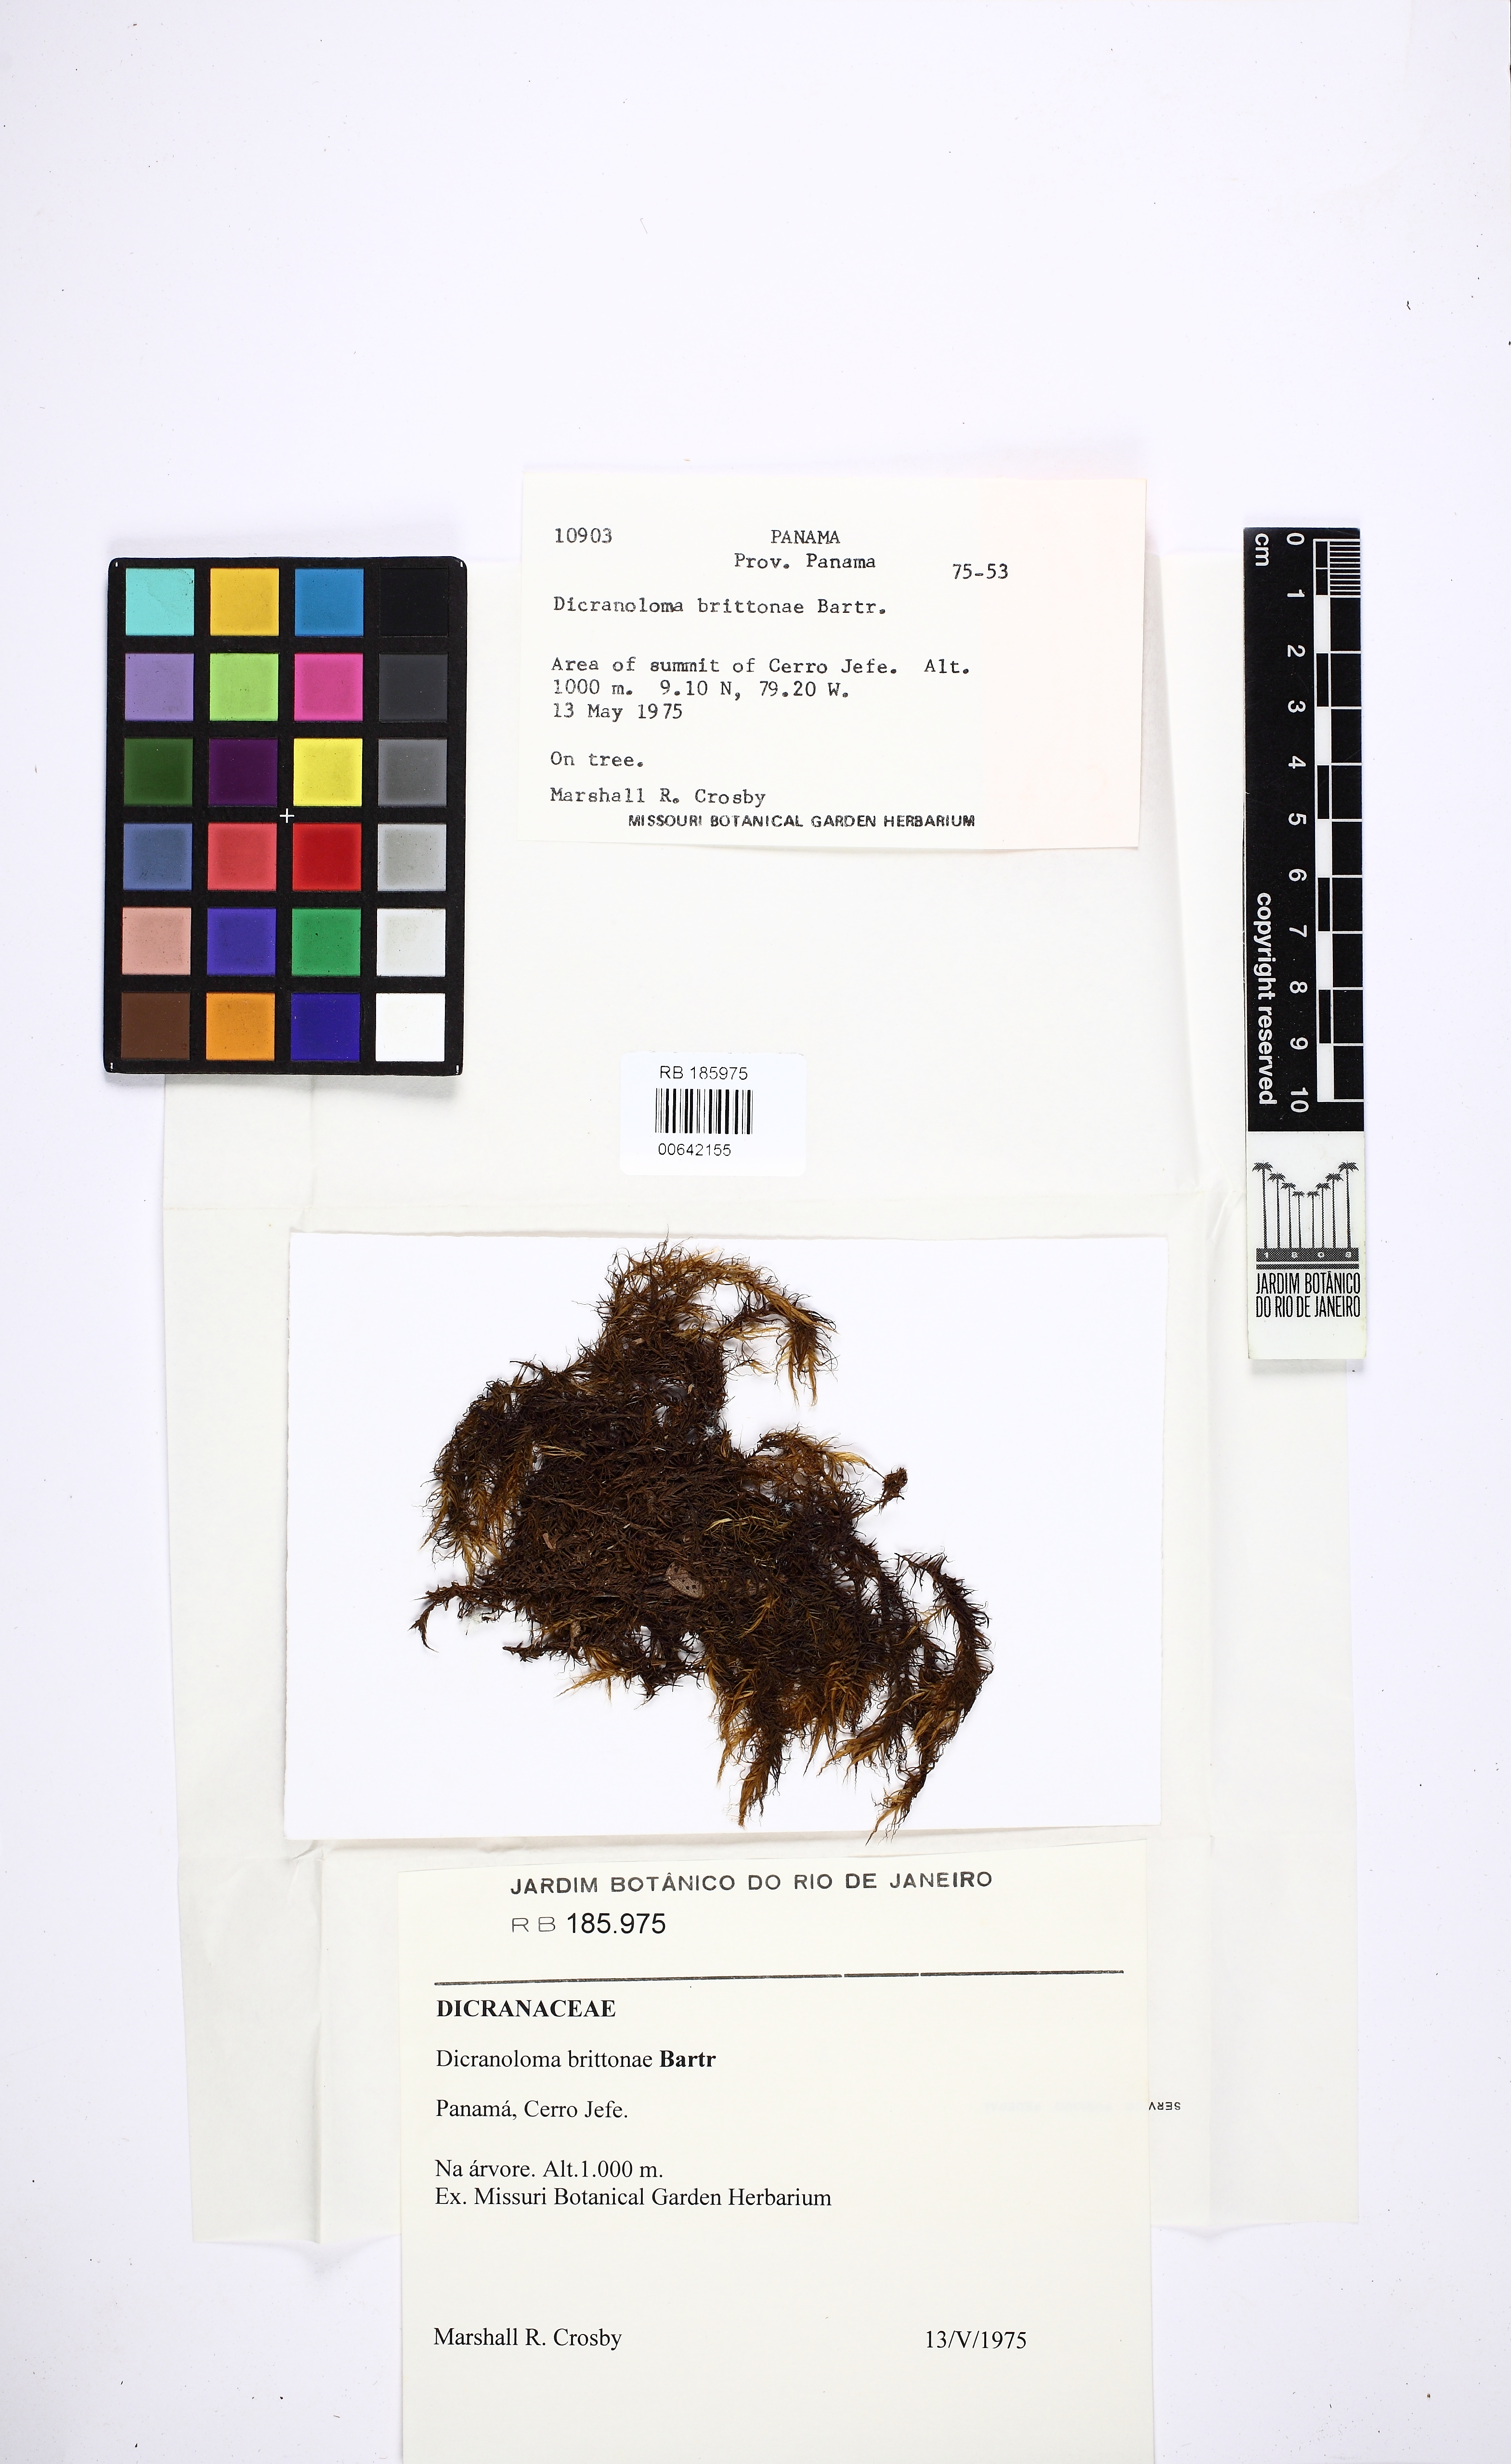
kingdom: Plantae
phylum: Bryophyta
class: Bryopsida
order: Dicranales
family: Dicranaceae
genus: Eucamptodontopsis
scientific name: Eucamptodontopsis brittoniae
